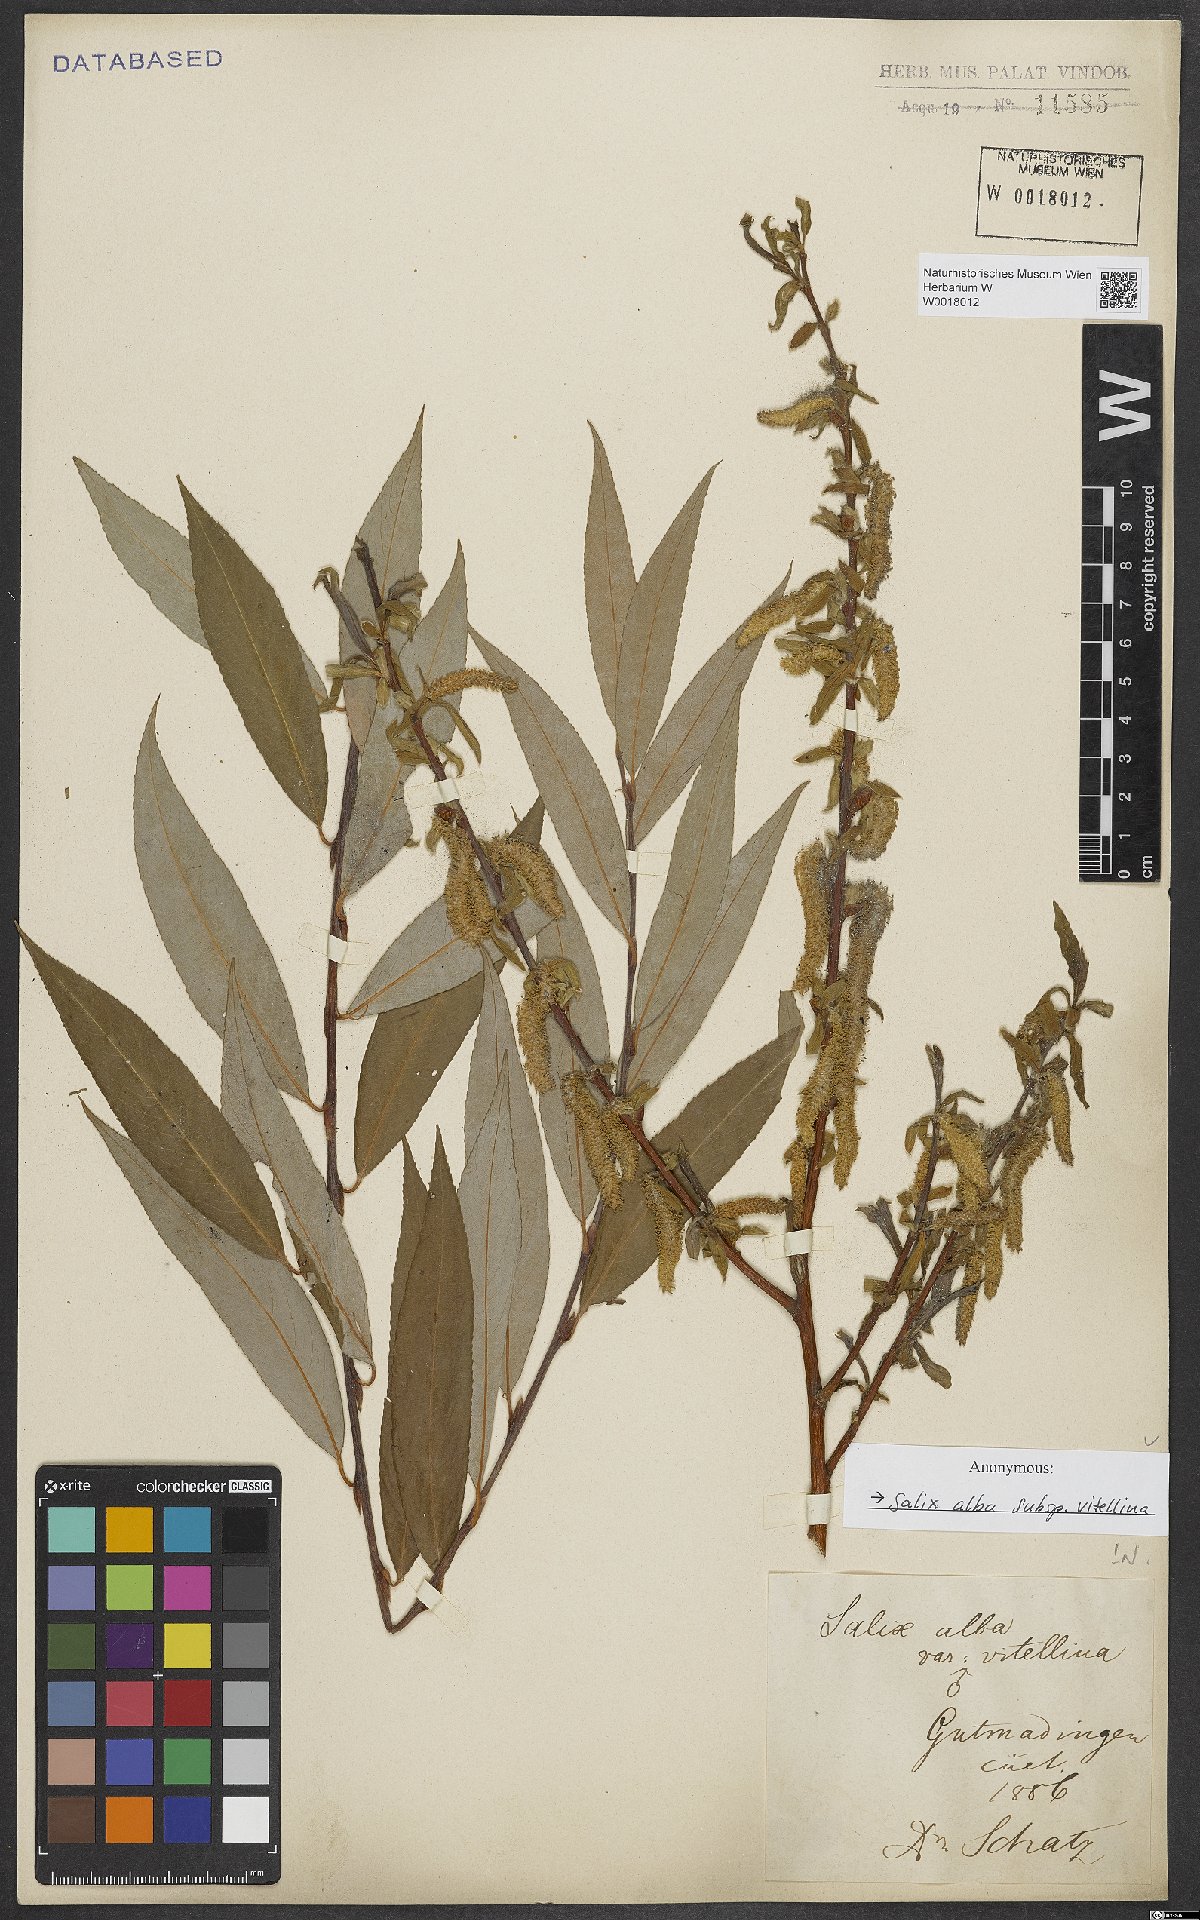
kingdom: Plantae
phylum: Tracheophyta
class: Magnoliopsida
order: Malpighiales
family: Salicaceae
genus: Salix
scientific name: Salix alba
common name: White willow
